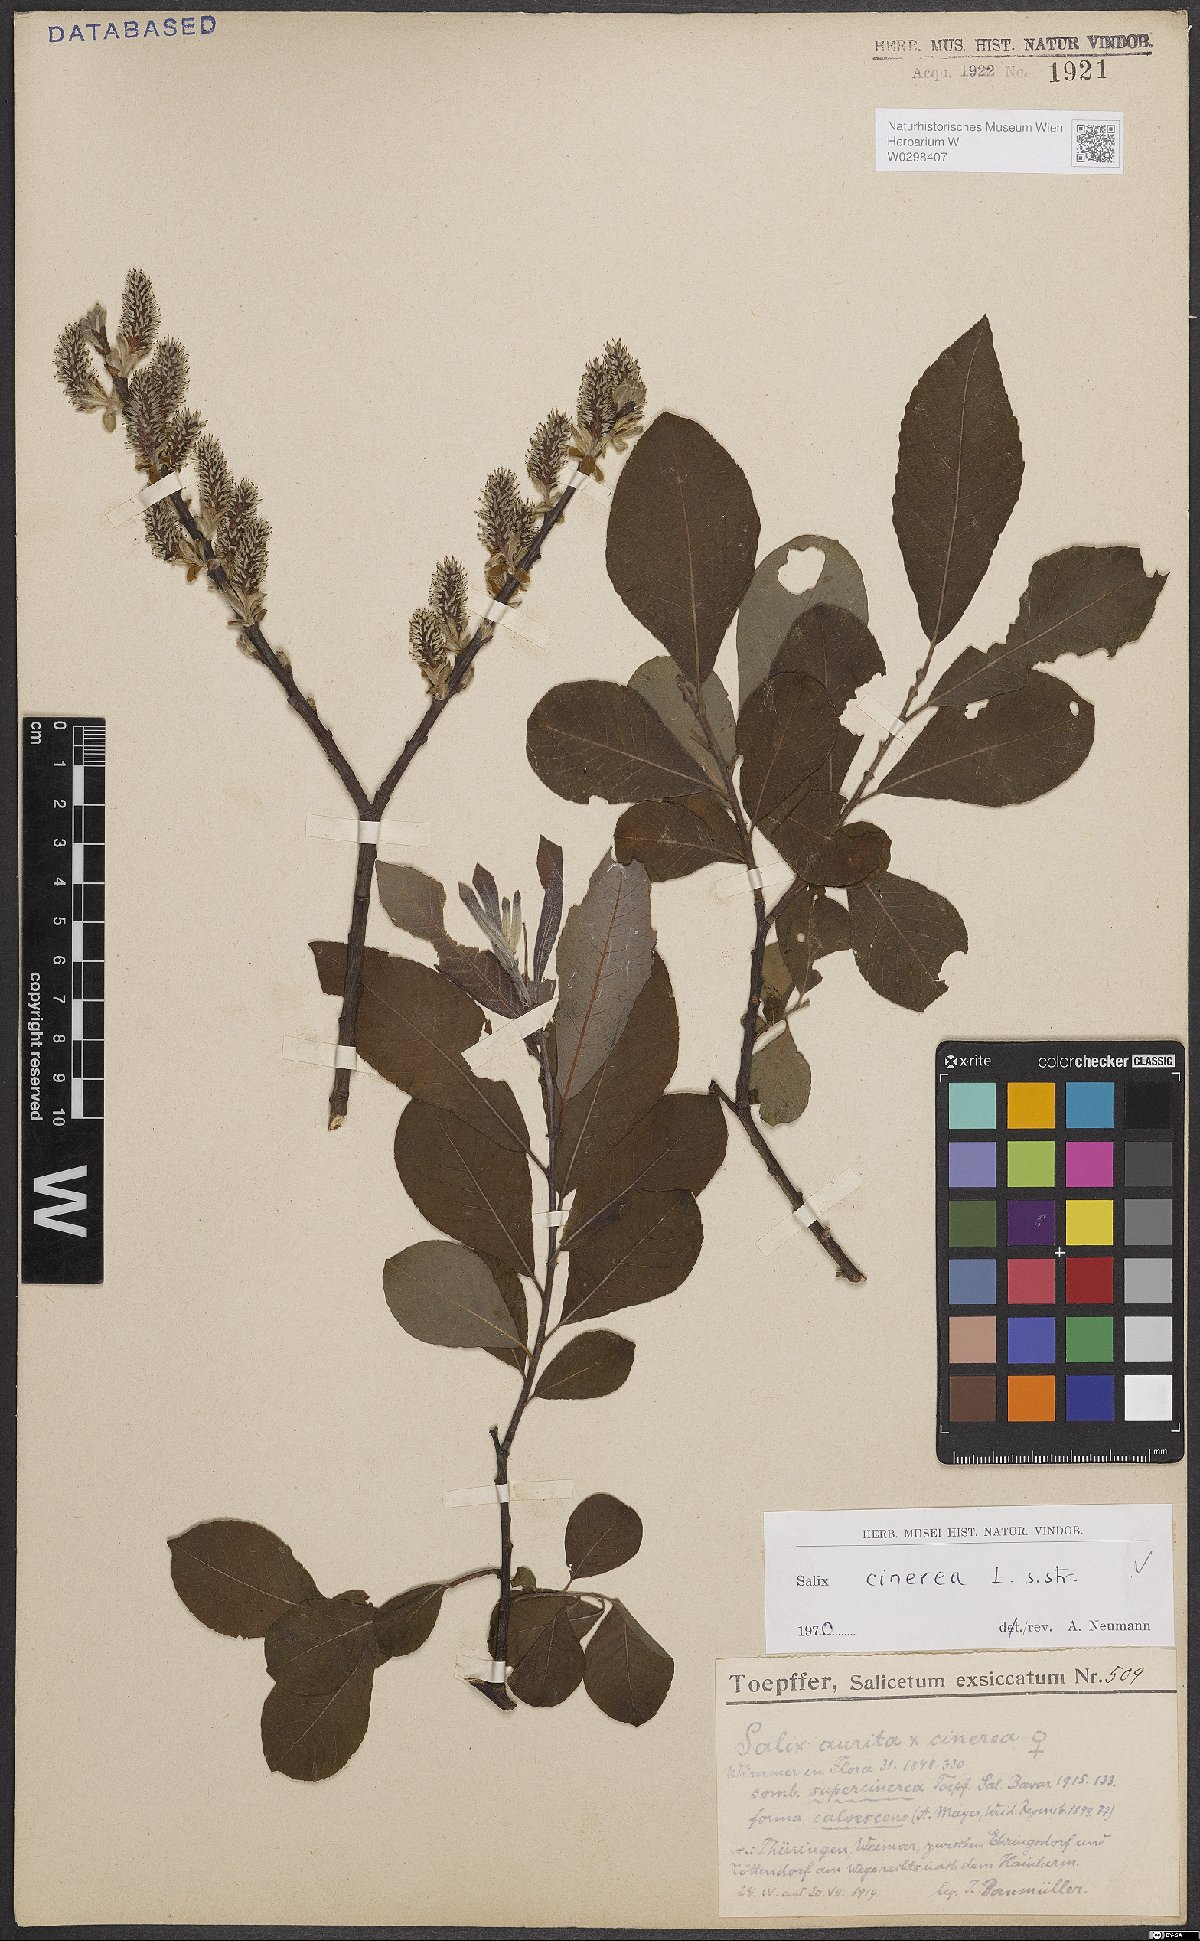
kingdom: Plantae
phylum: Tracheophyta
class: Magnoliopsida
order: Malpighiales
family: Salicaceae
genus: Salix
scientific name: Salix cinerea
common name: Common sallow
